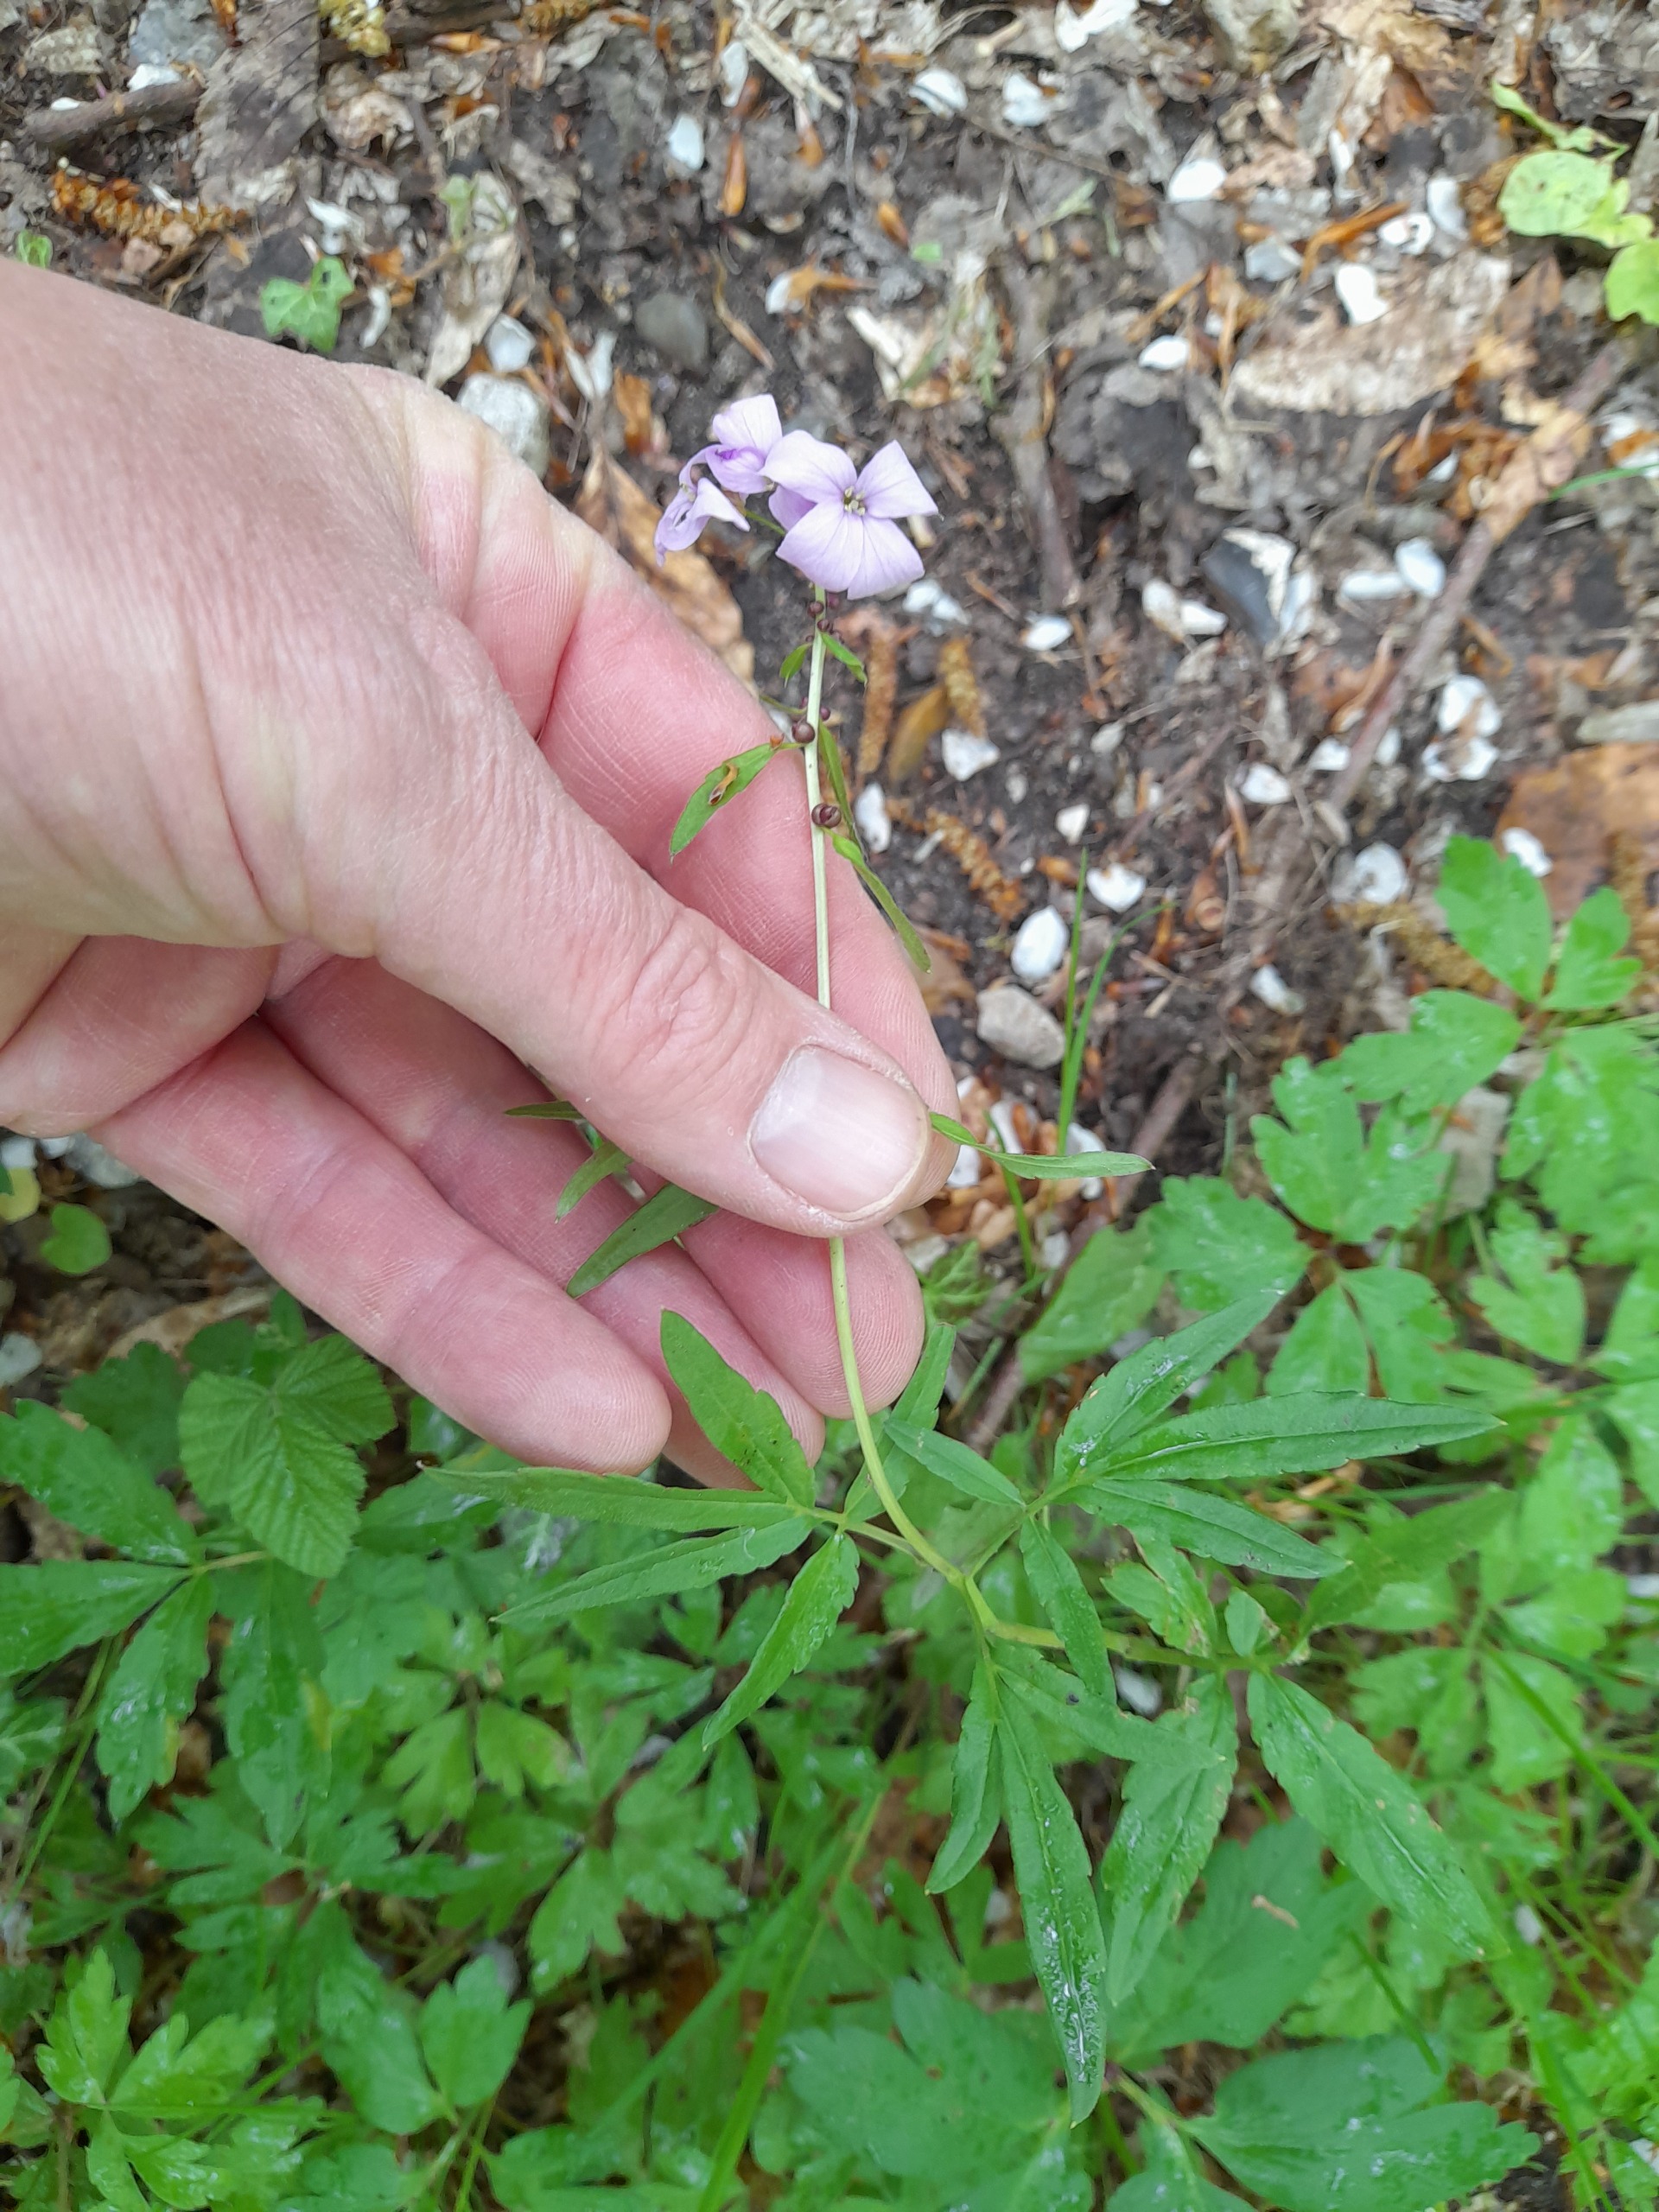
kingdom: Plantae
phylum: Tracheophyta
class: Magnoliopsida
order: Brassicales
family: Brassicaceae
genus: Cardamine
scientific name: Cardamine bulbifera
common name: Tandrod
